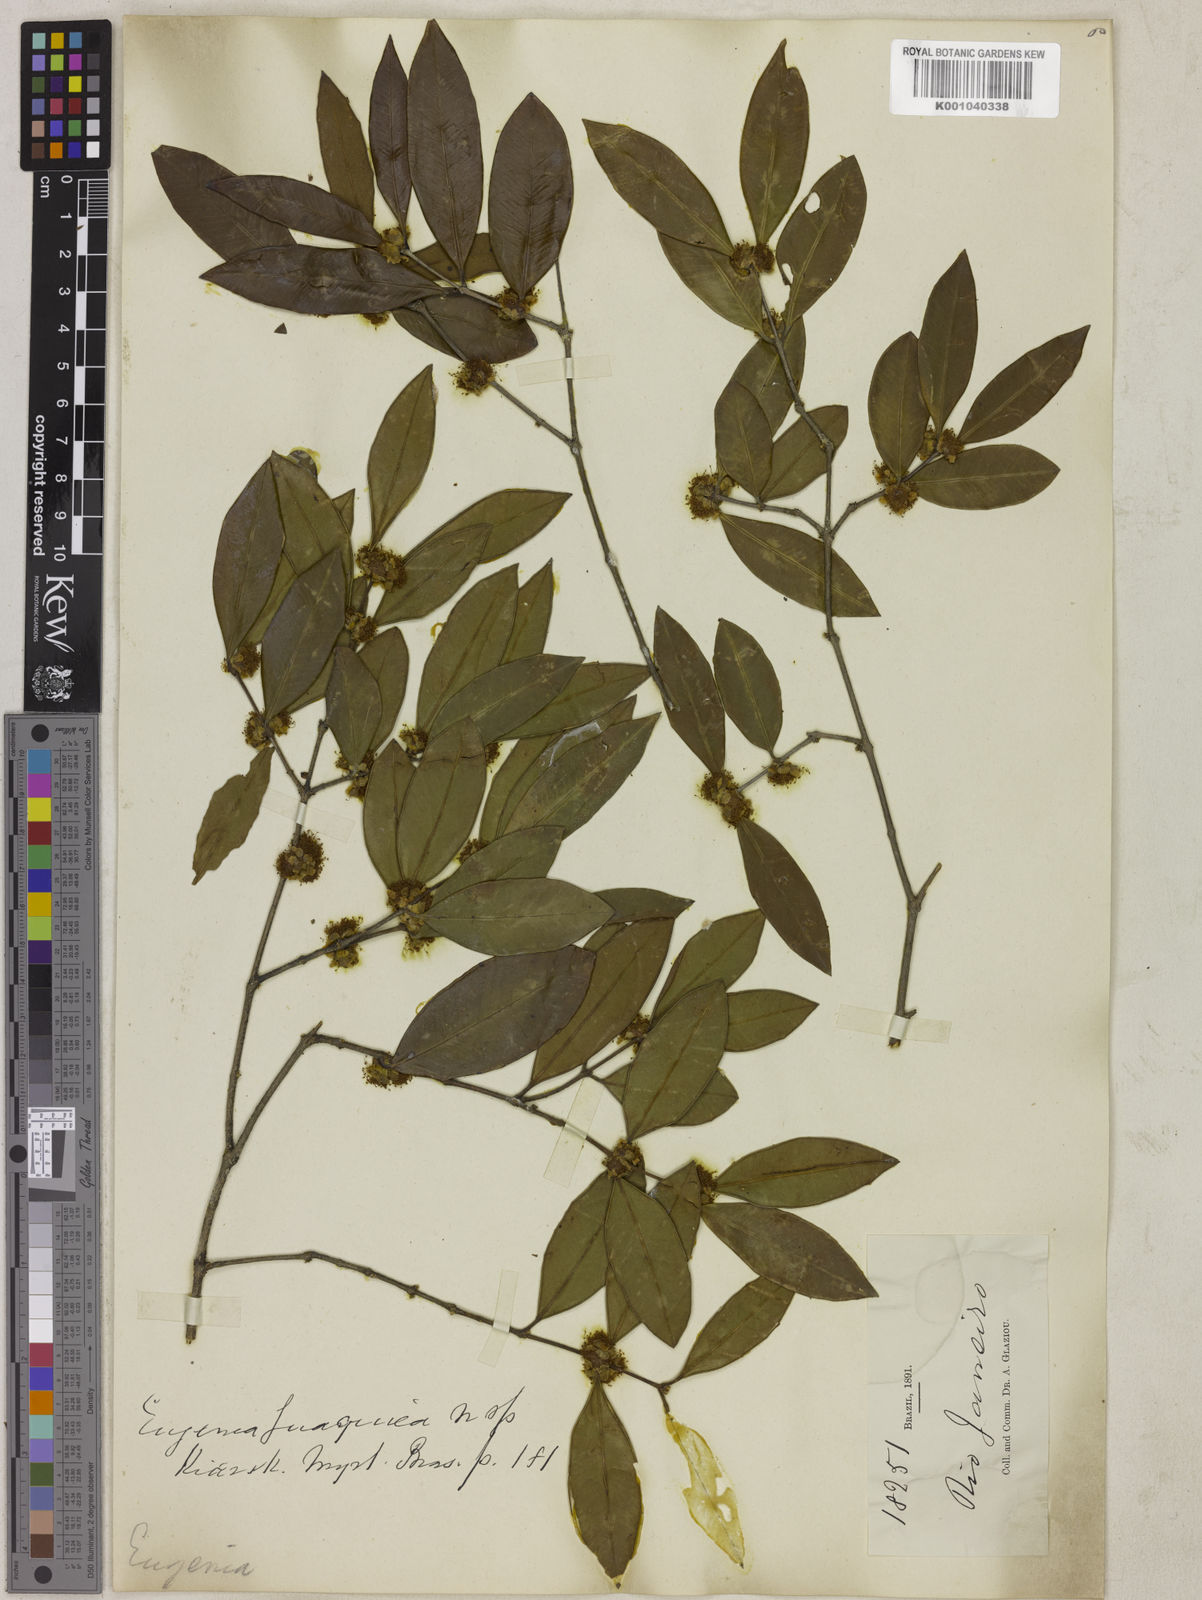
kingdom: Plantae
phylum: Tracheophyta
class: Magnoliopsida
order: Myrtales
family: Myrtaceae
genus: Myrciaria
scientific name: Myrciaria guaquiea
